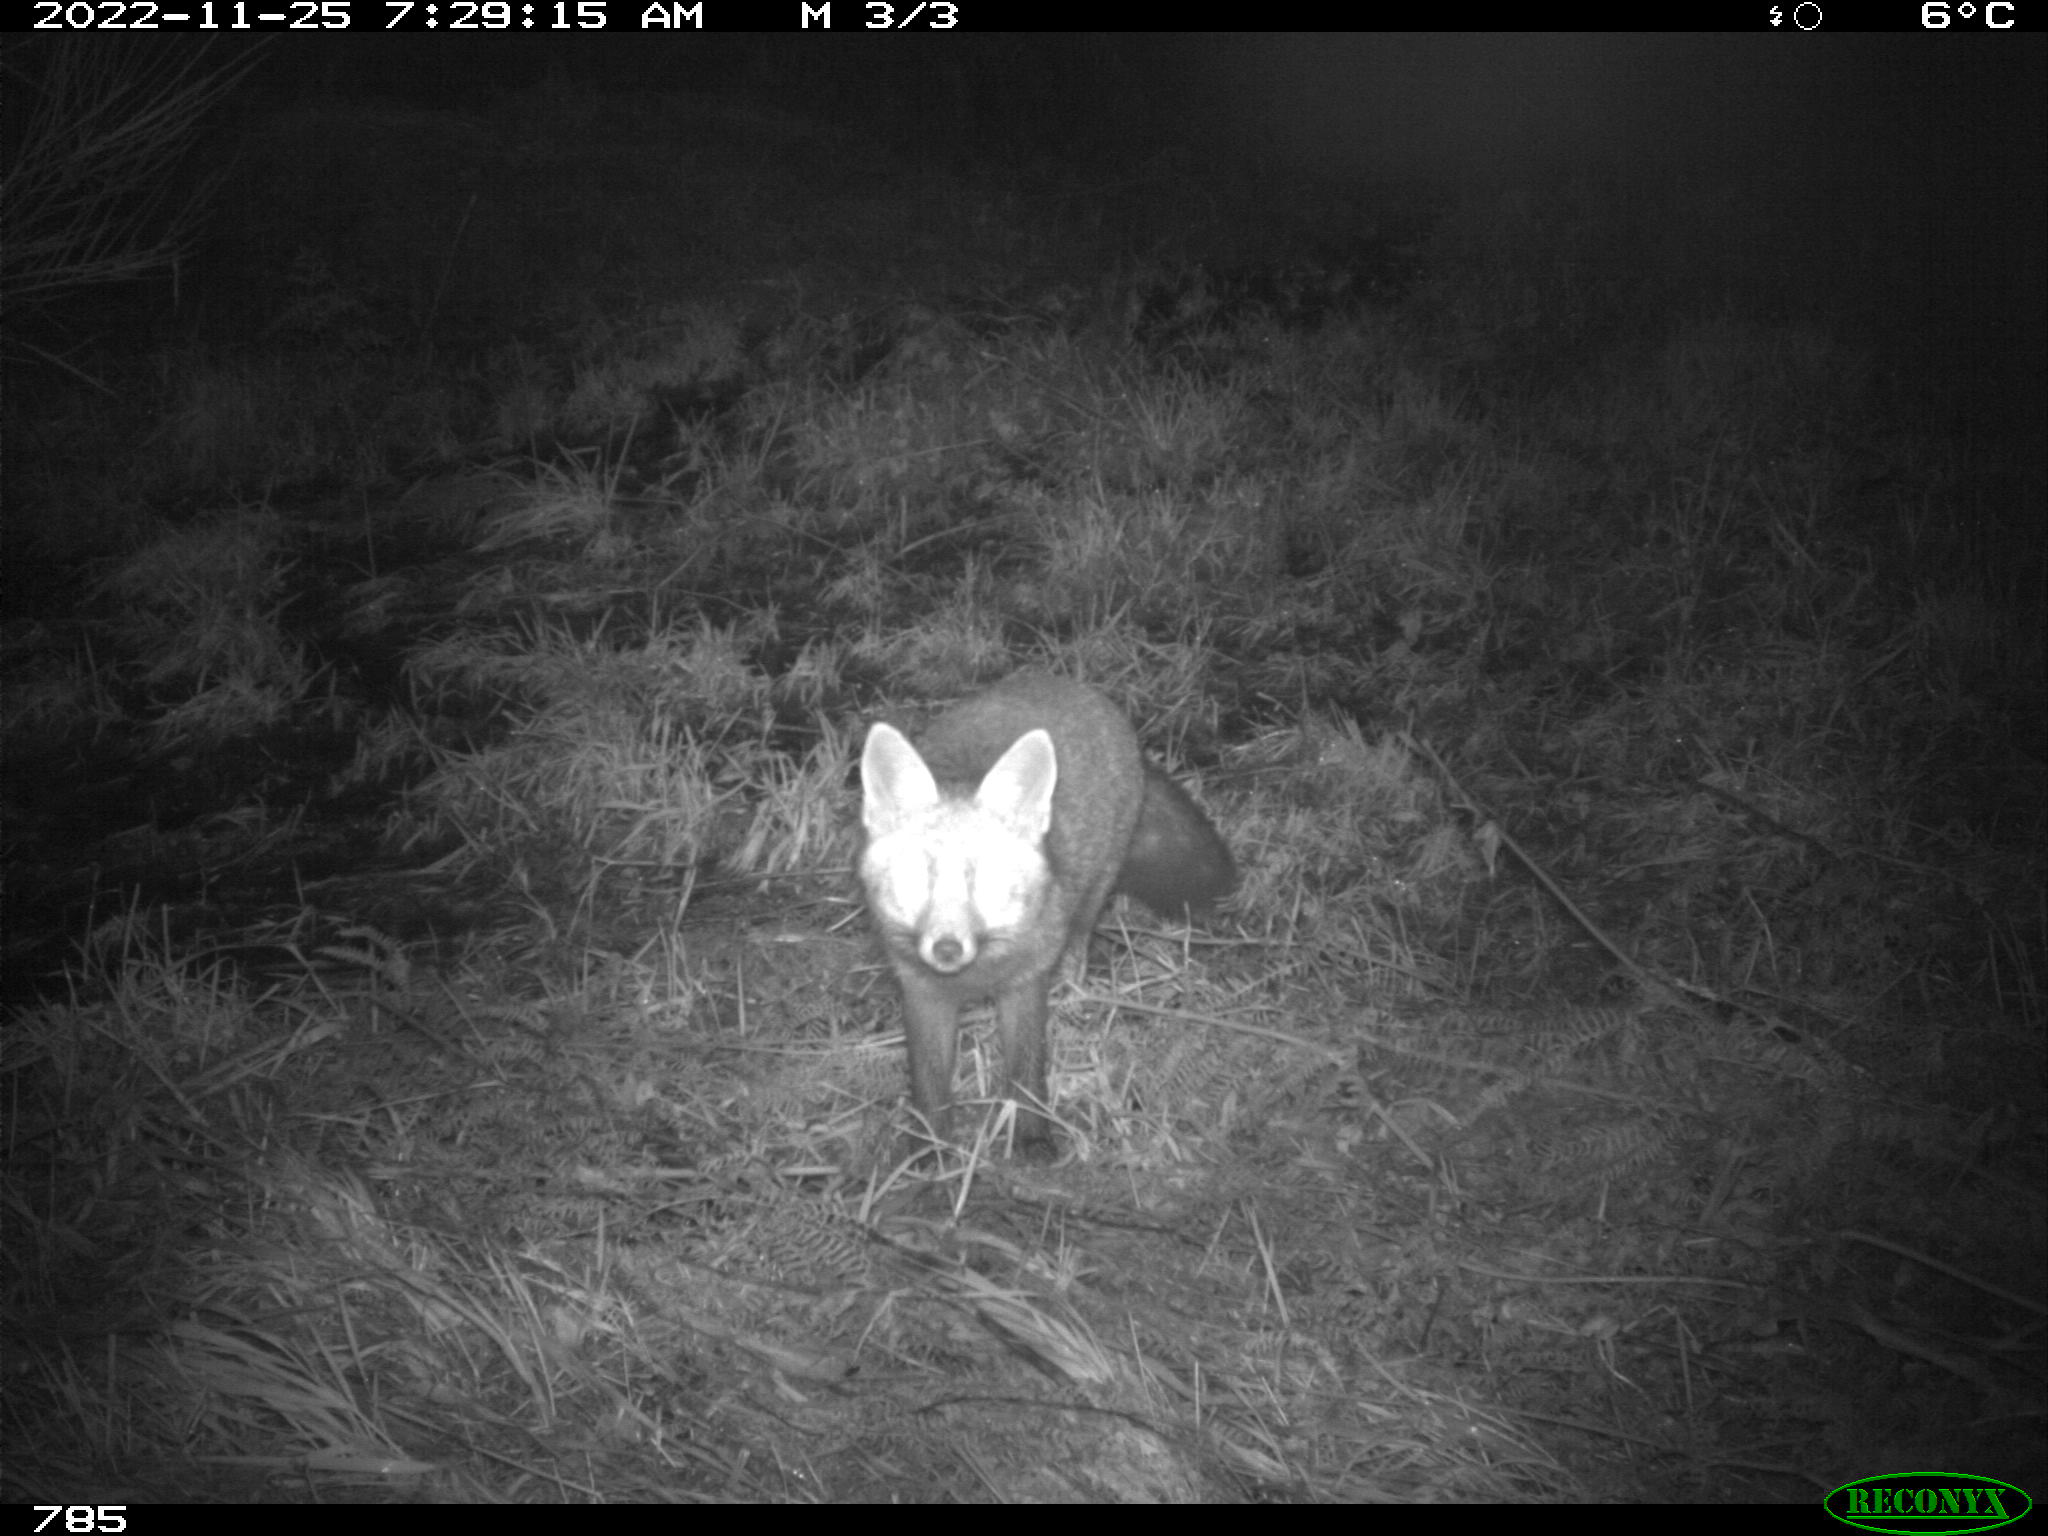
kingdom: Animalia
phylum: Chordata
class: Mammalia
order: Carnivora
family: Canidae
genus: Vulpes
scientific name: Vulpes vulpes
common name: Red fox
